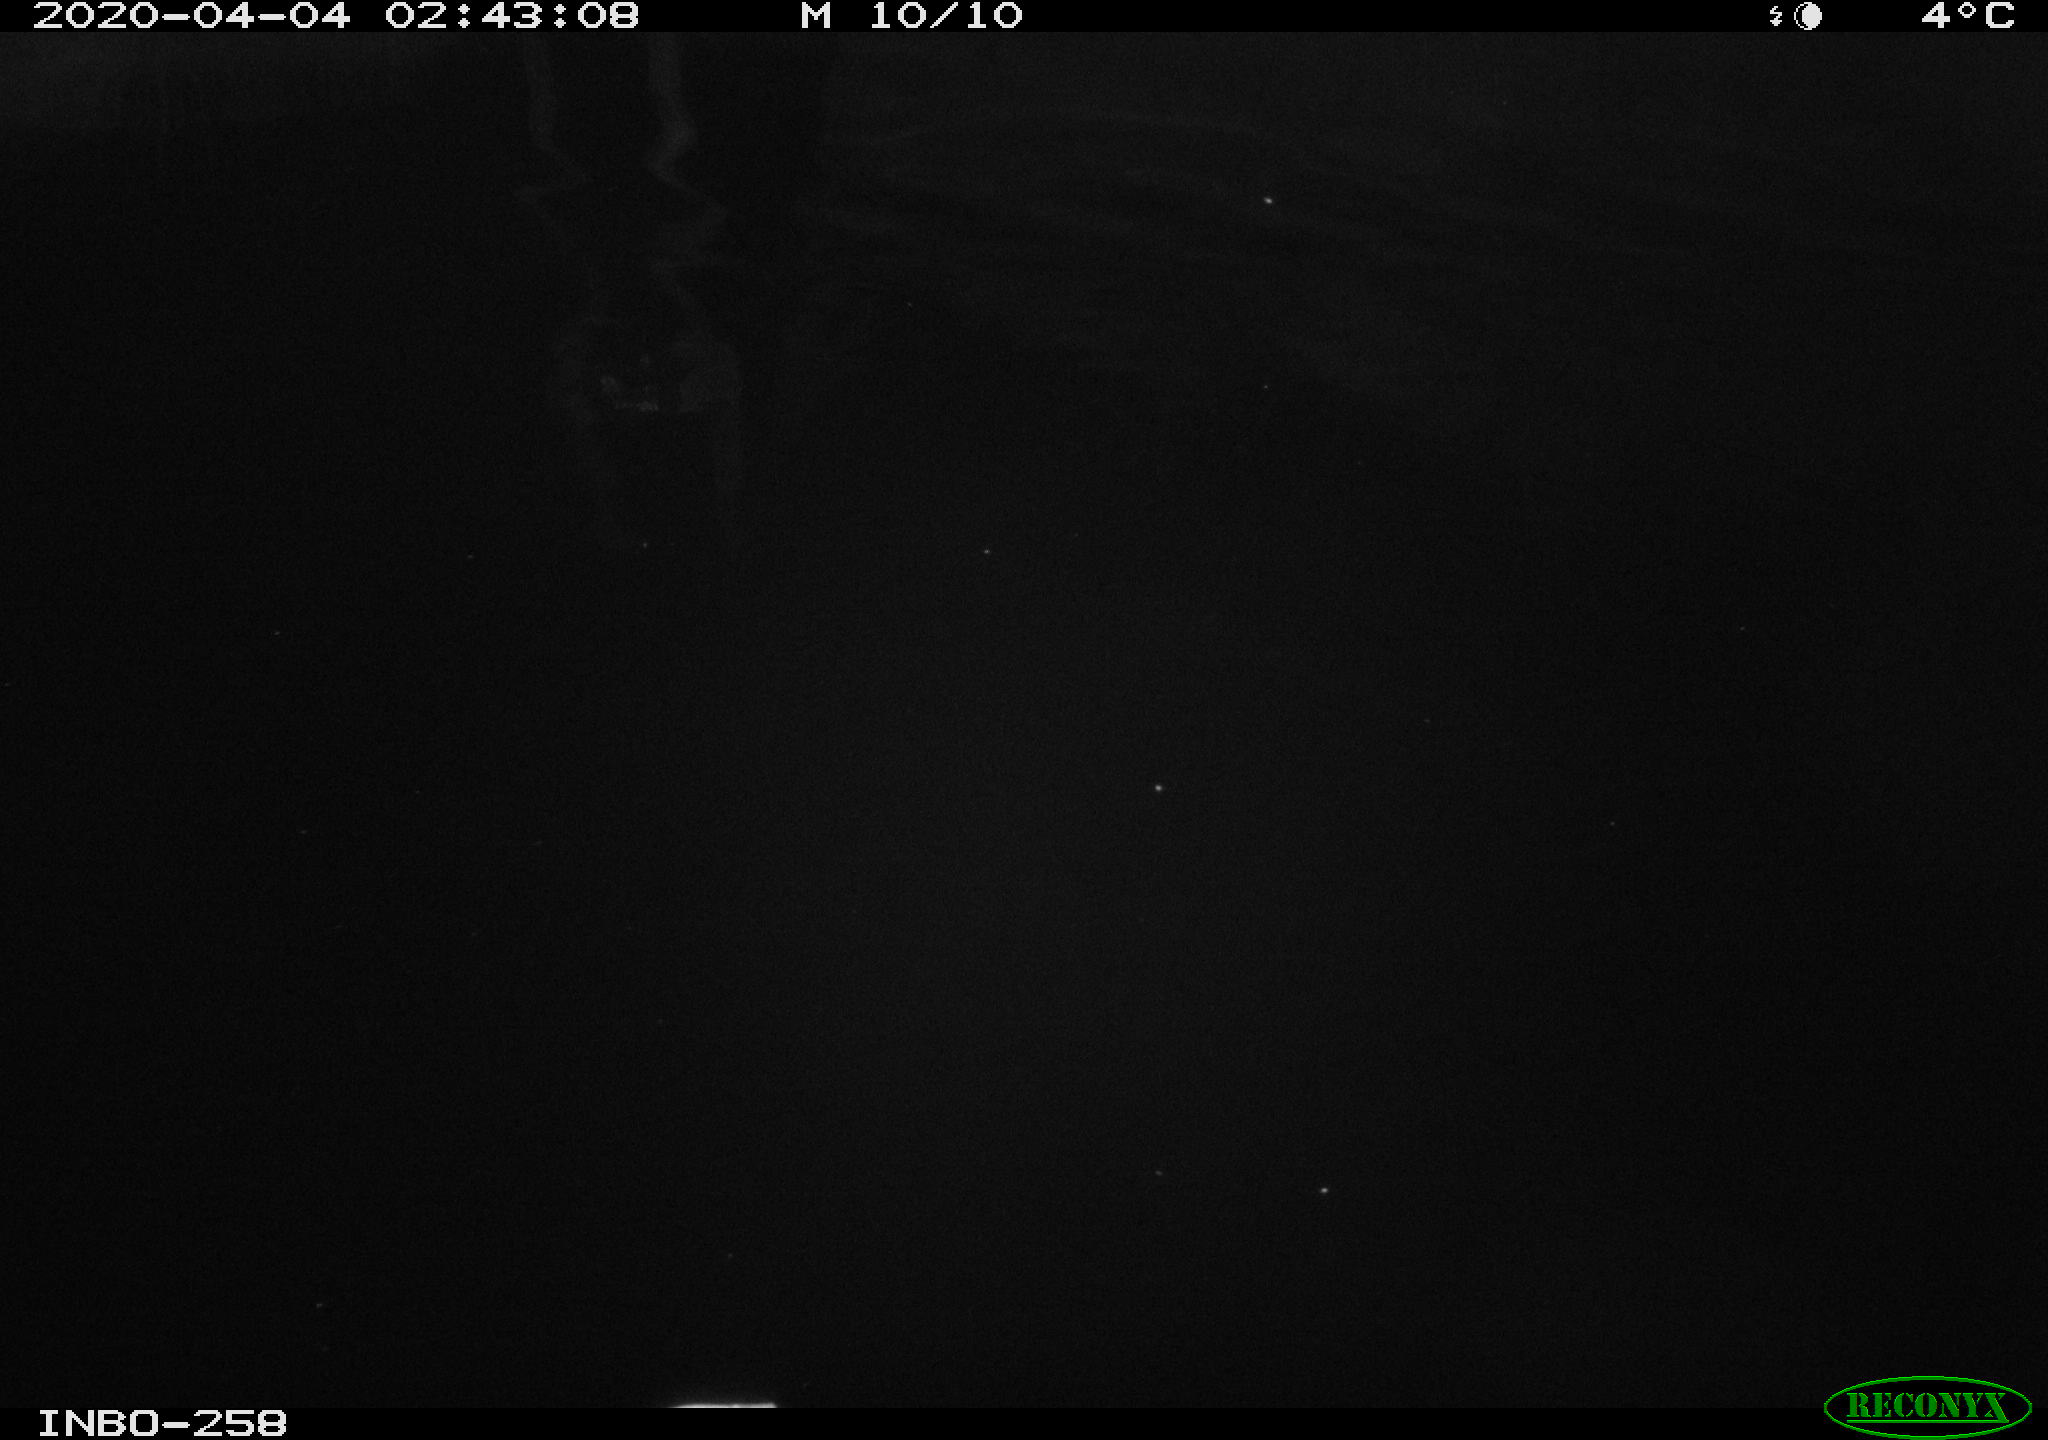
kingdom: Animalia
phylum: Chordata
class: Aves
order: Anseriformes
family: Anatidae
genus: Anas
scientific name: Anas platyrhynchos
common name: Mallard
